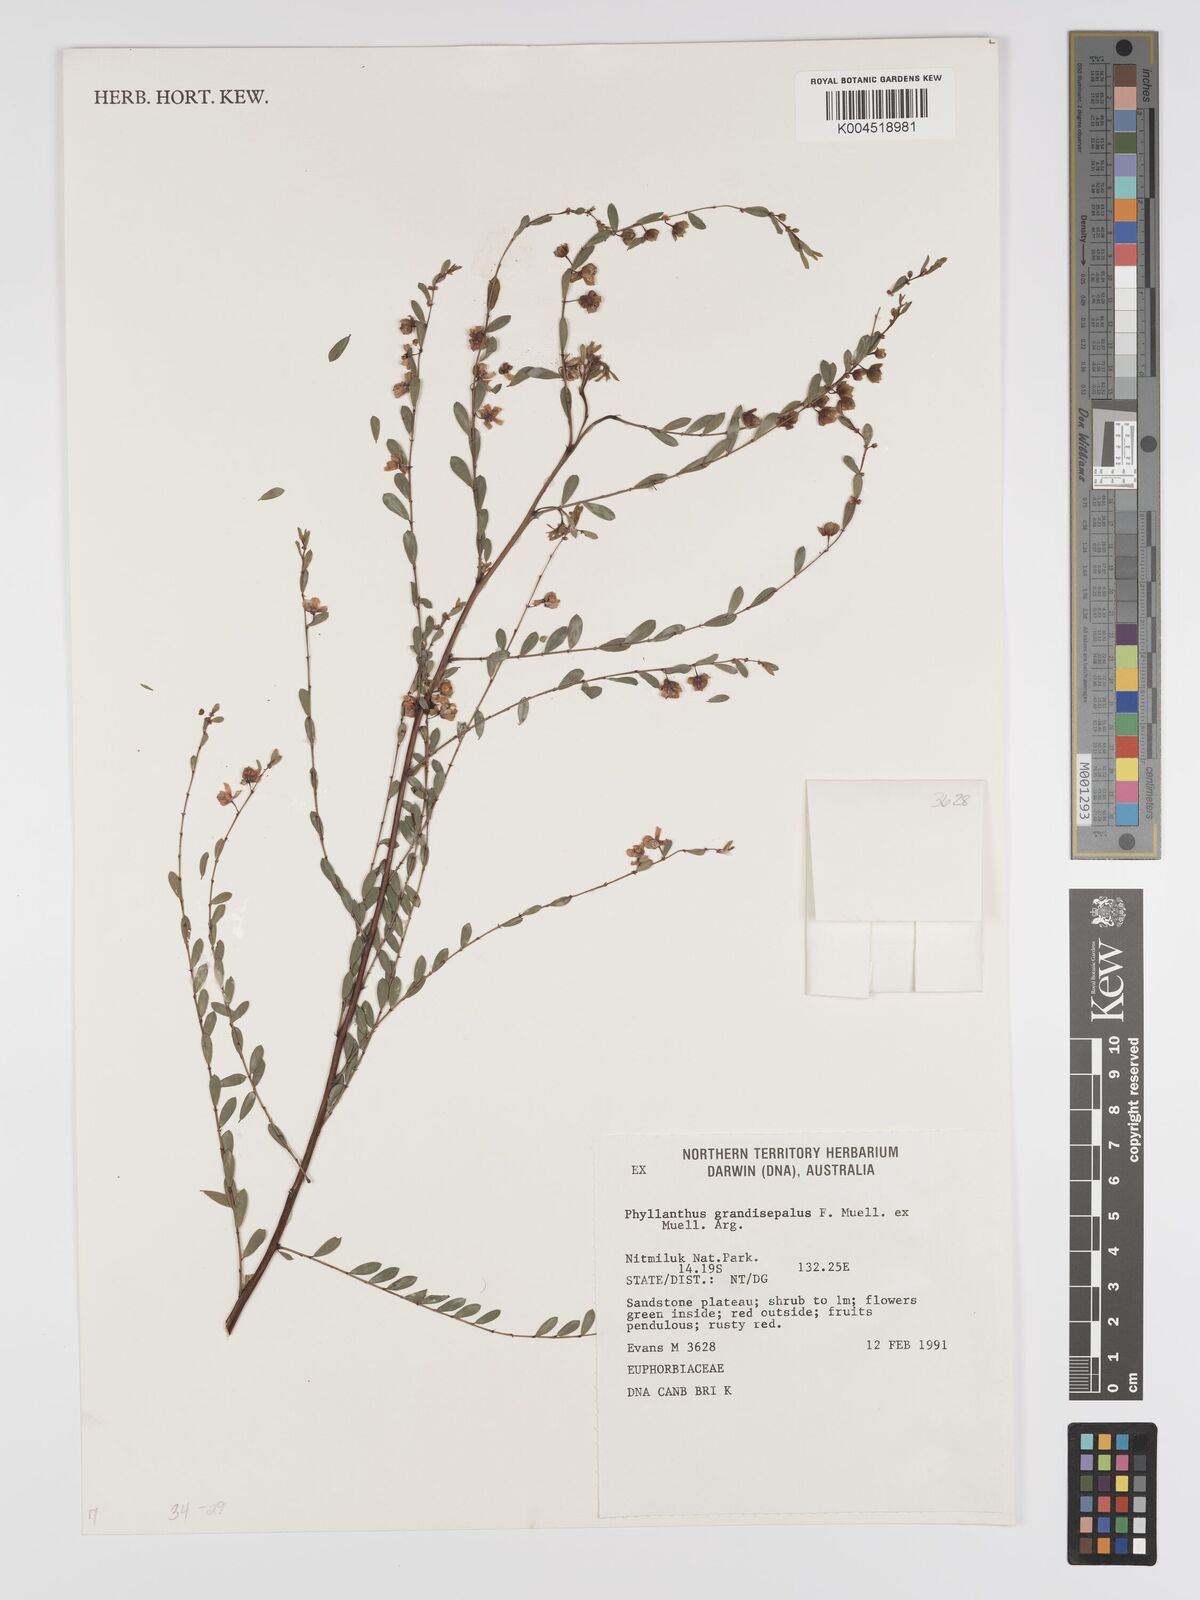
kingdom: Plantae
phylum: Tracheophyta
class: Magnoliopsida
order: Malpighiales
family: Phyllanthaceae
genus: Phyllanthus
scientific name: Phyllanthus carpentariae
